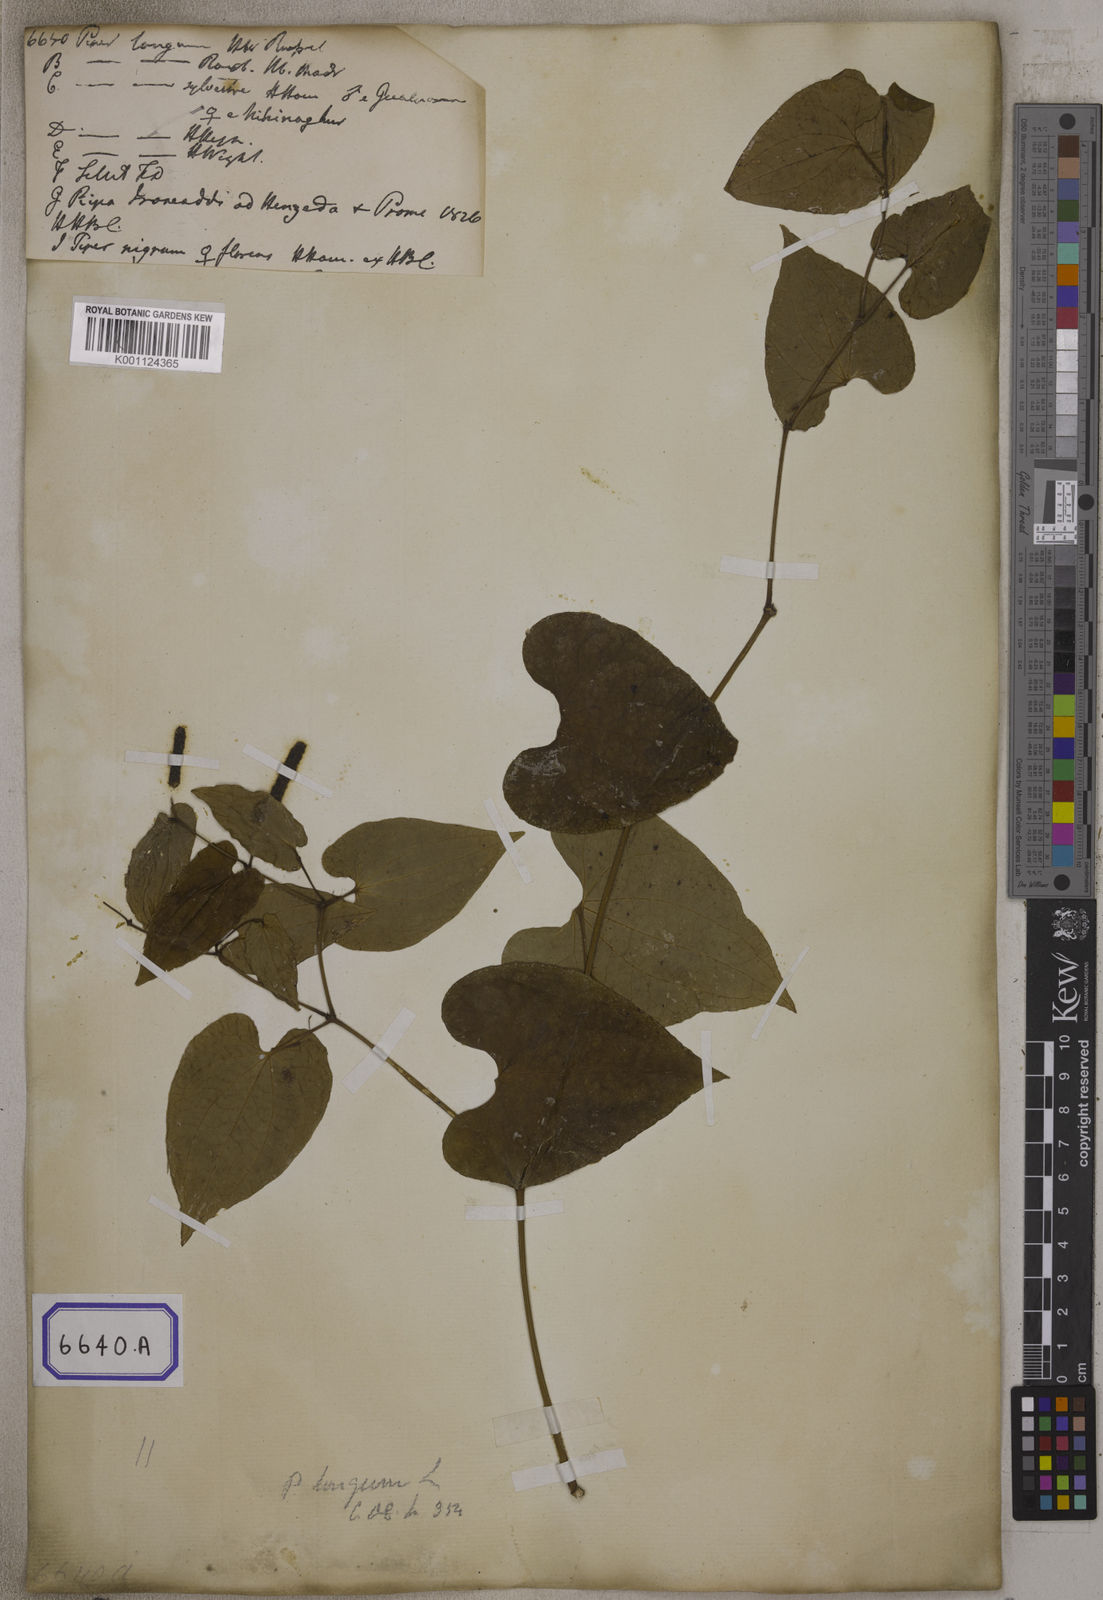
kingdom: Plantae
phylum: Tracheophyta
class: Magnoliopsida
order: Piperales
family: Piperaceae
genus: Piper
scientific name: Piper longum
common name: Long pepper
